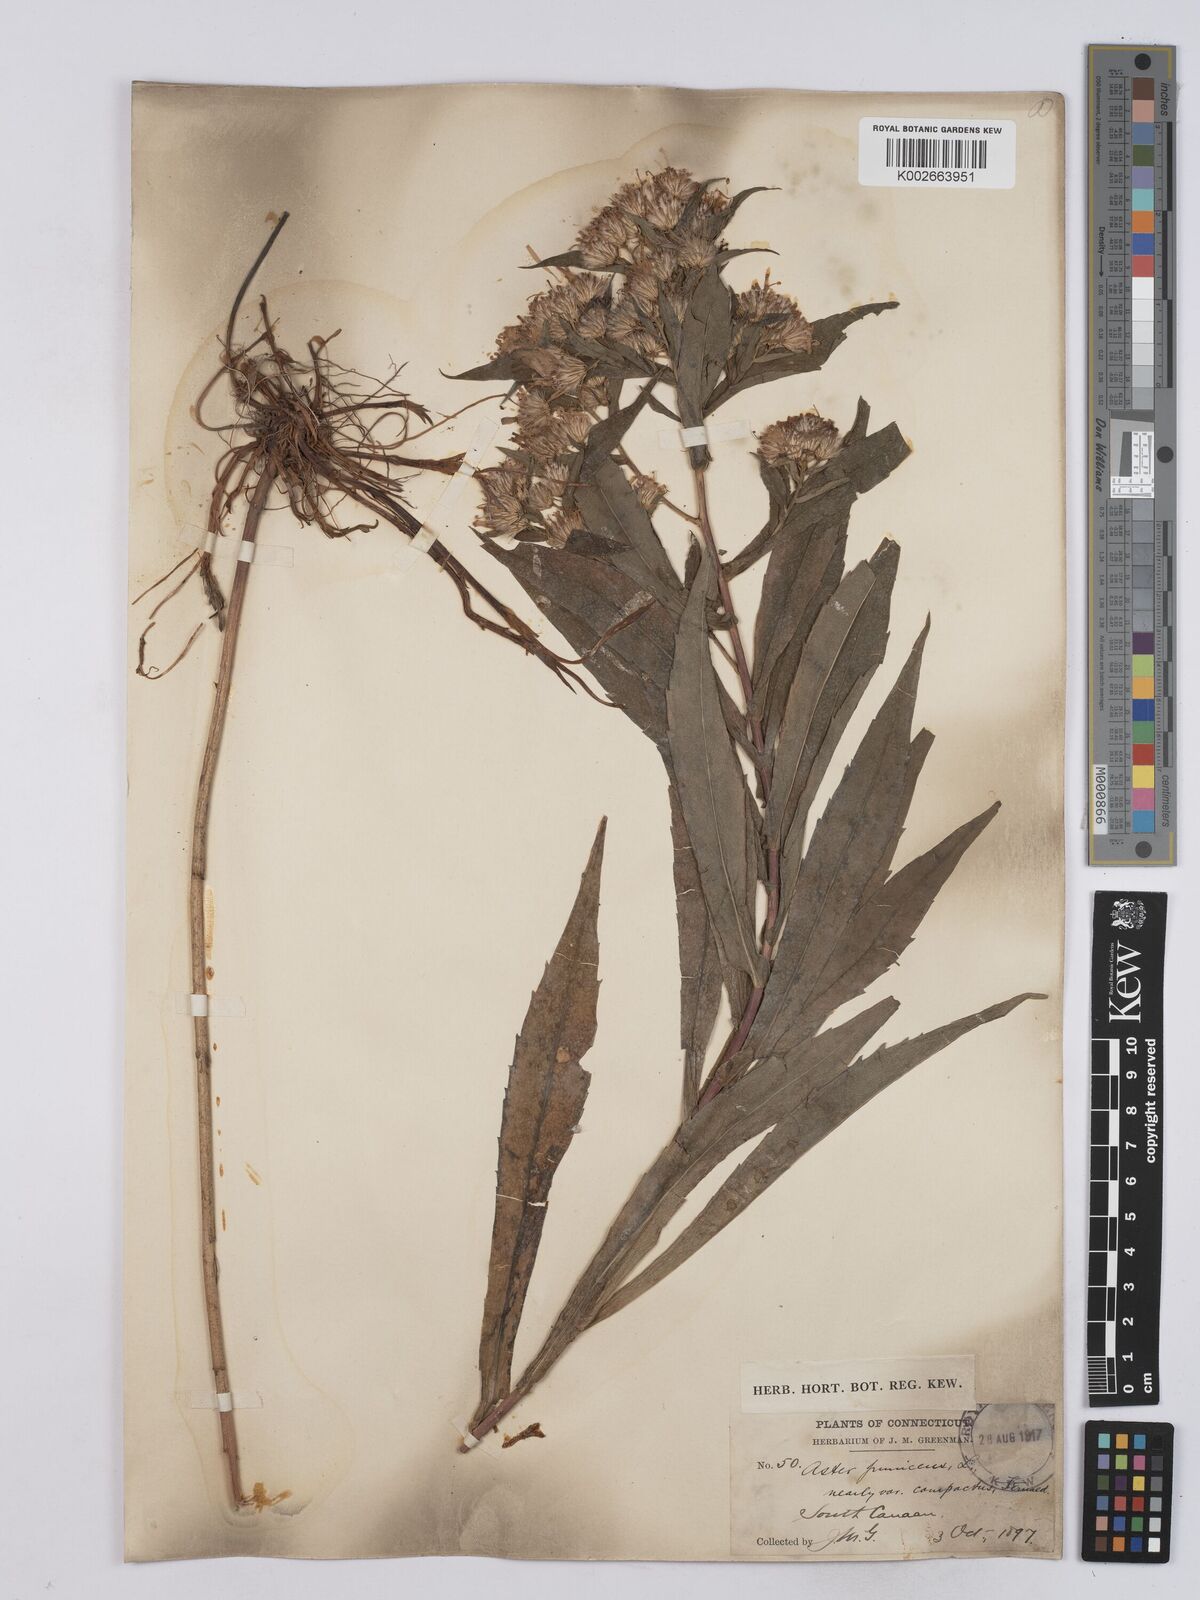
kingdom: Plantae
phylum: Tracheophyta
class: Magnoliopsida
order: Asterales
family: Asteraceae
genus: Symphyotrichum
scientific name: Symphyotrichum puniceum
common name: Bog aster
